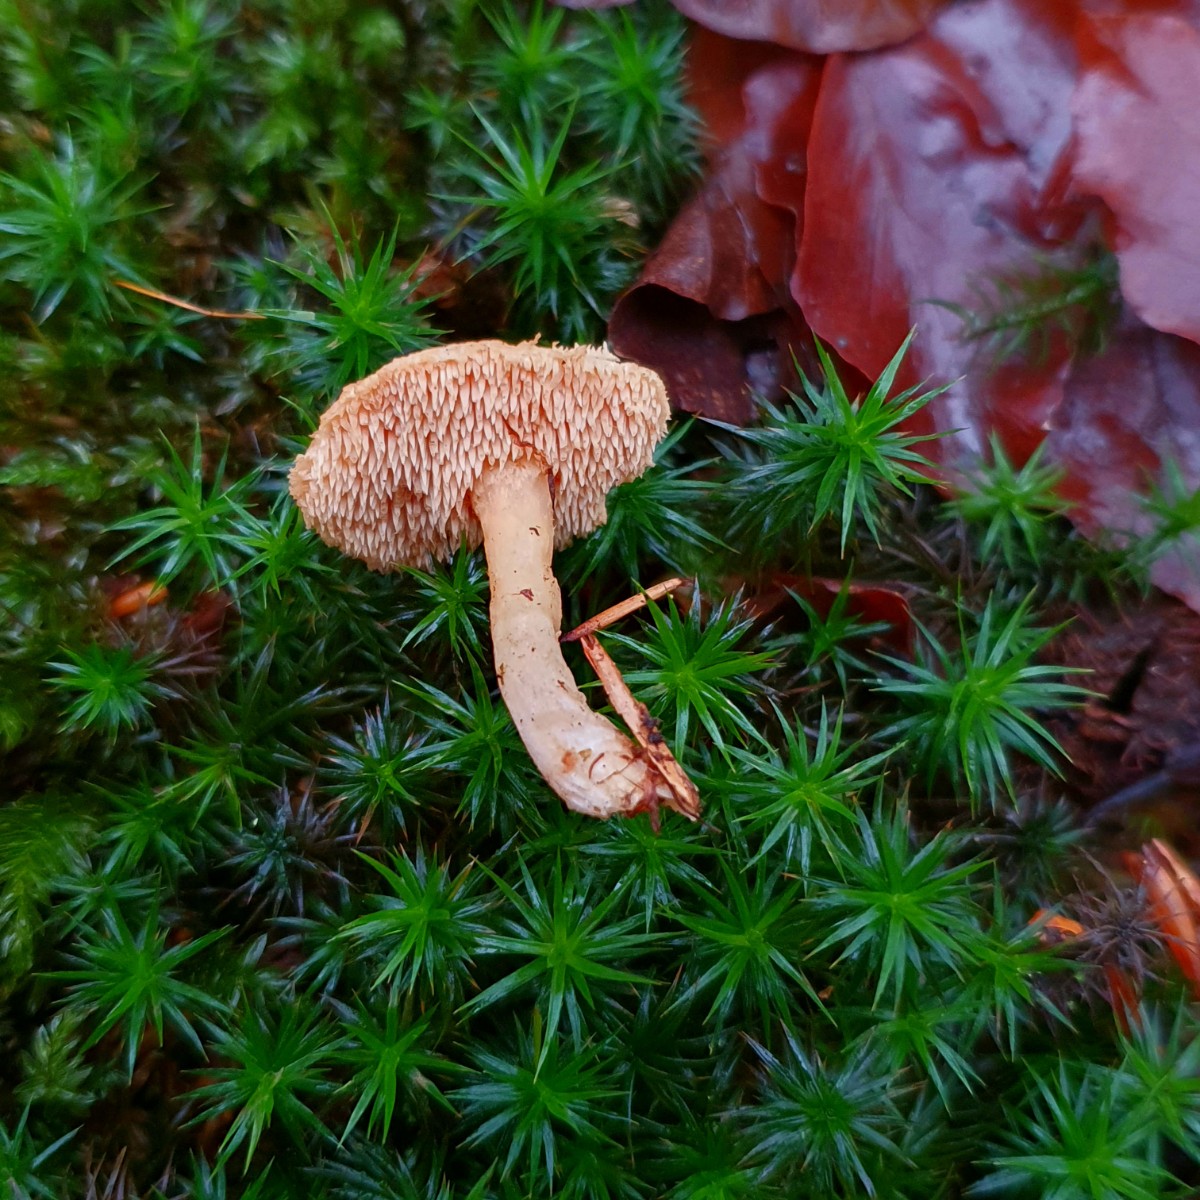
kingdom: Fungi
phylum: Basidiomycota
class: Agaricomycetes
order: Cantharellales
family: Hydnaceae
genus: Hydnum
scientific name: Hydnum umbilicatum
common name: navle-pigsvamp
